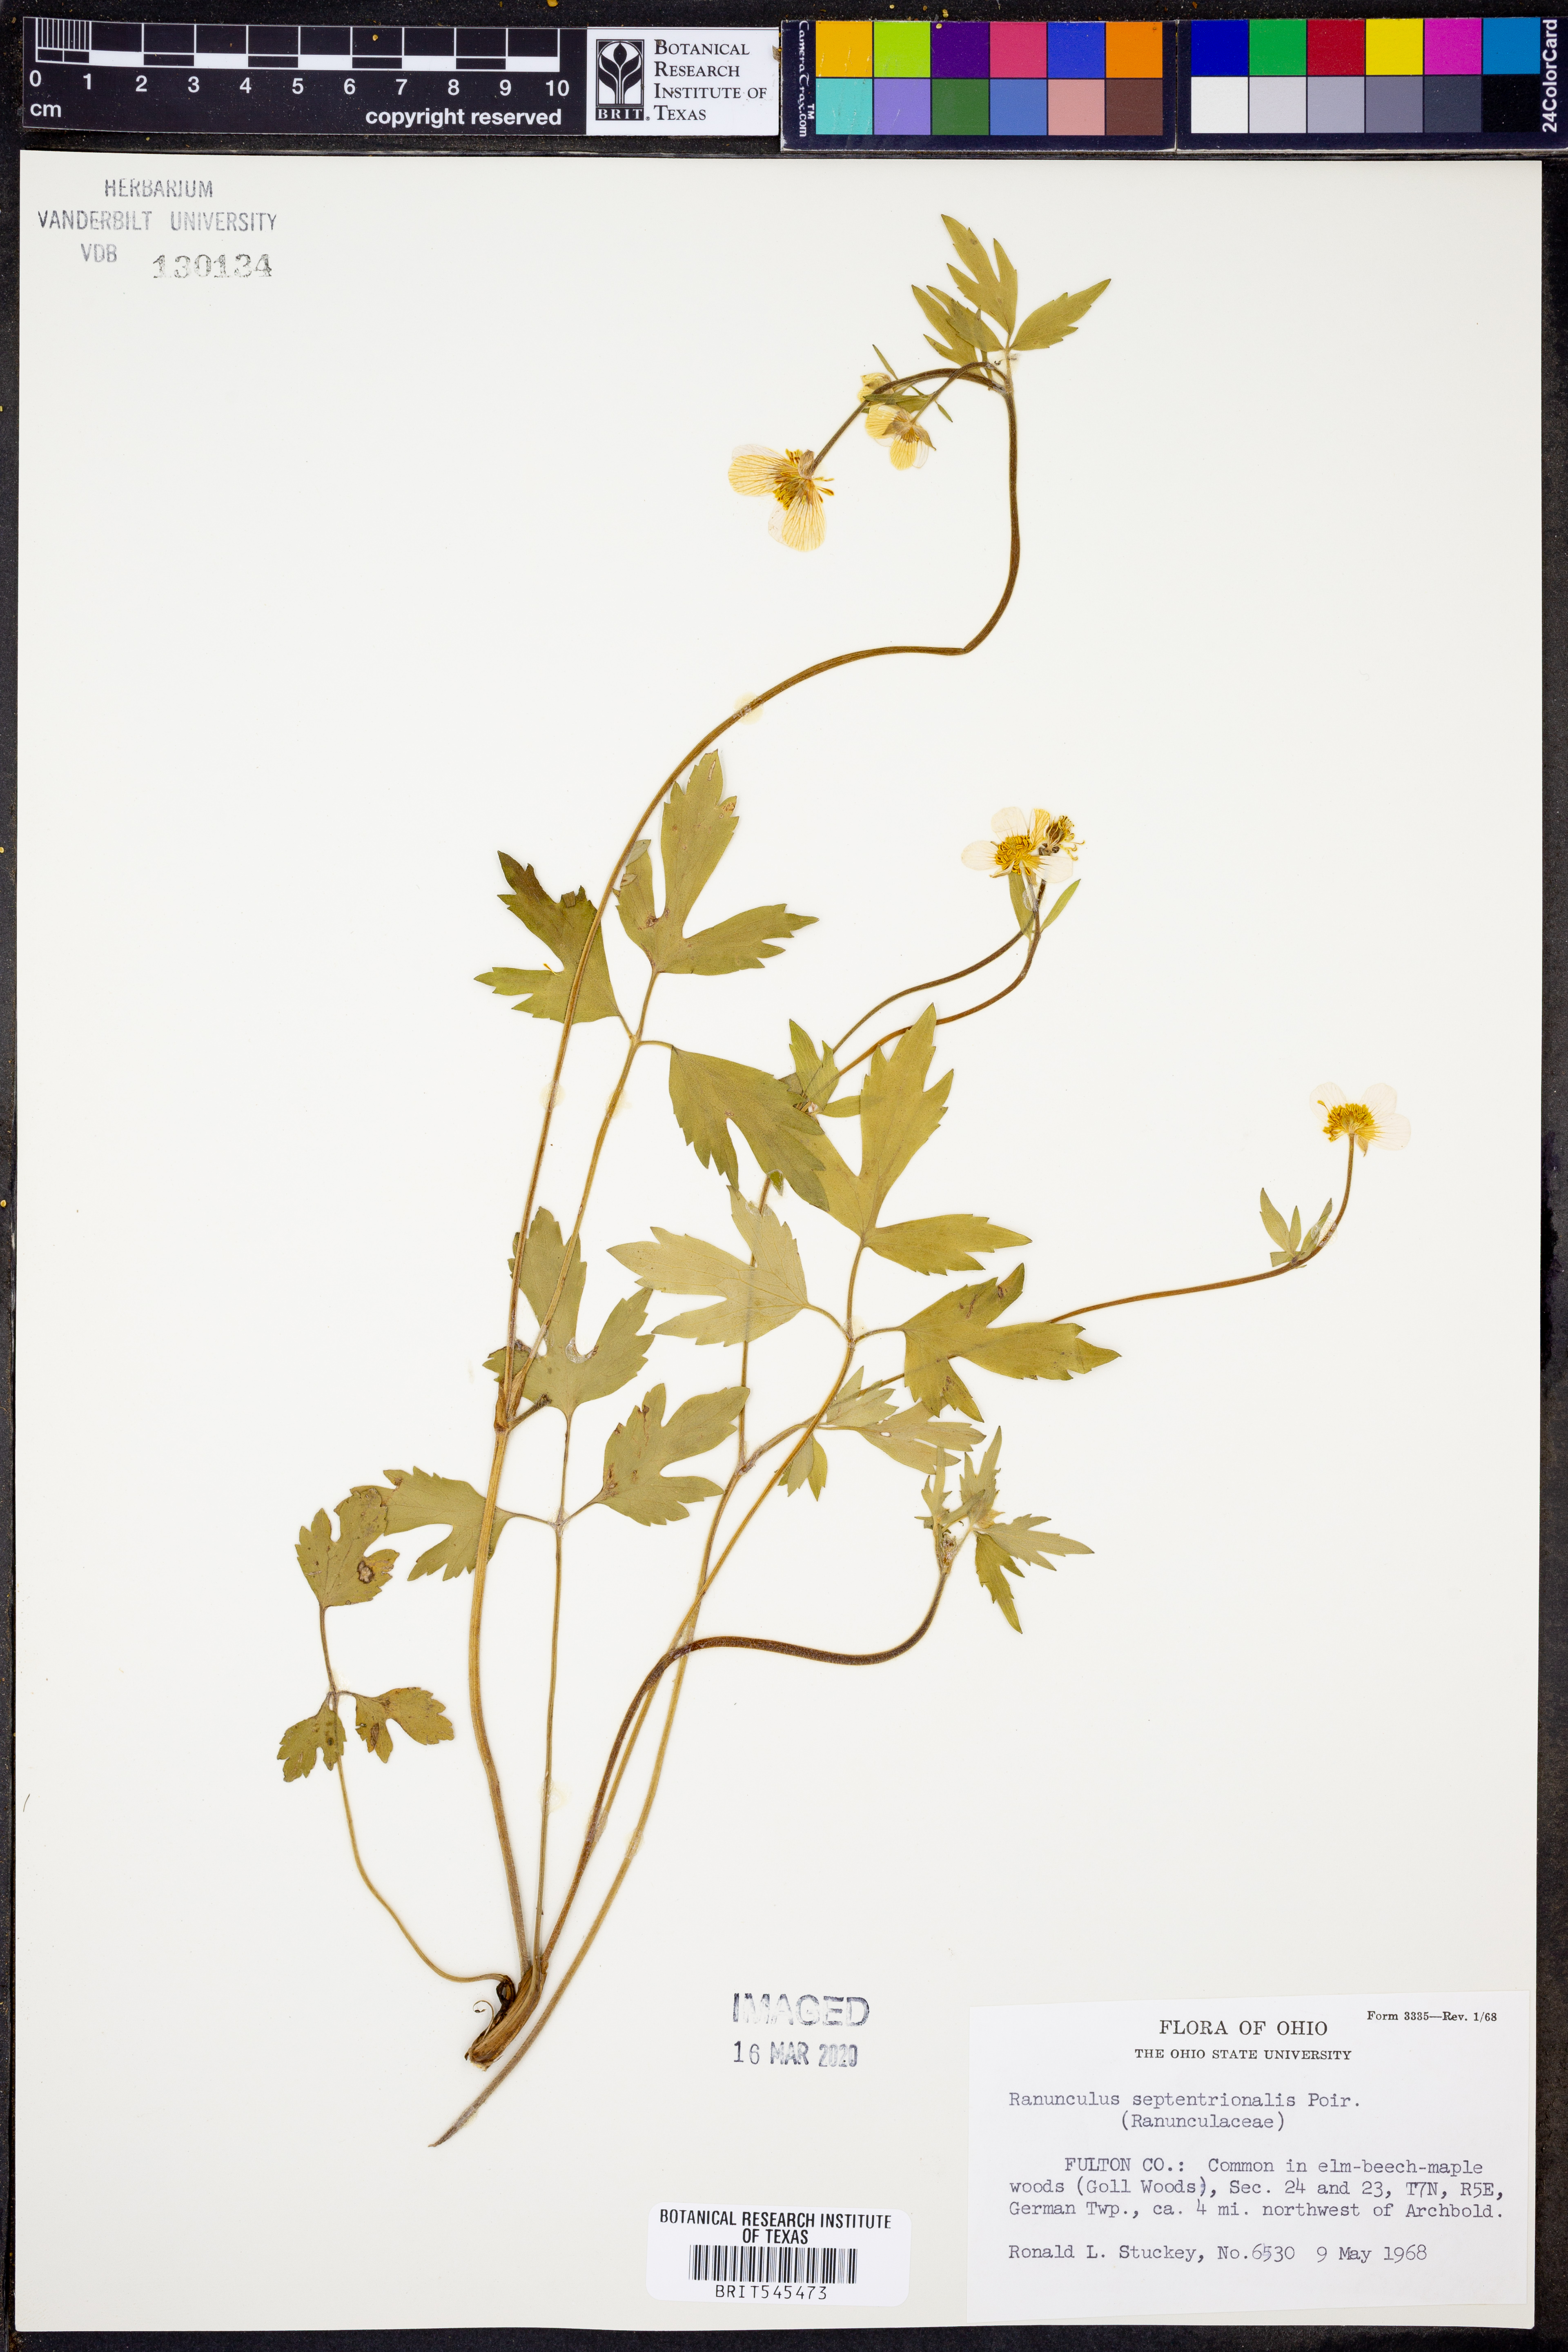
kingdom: Plantae
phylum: Tracheophyta
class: Magnoliopsida
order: Ranunculales
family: Ranunculaceae
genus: Ranunculus
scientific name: Ranunculus hispidus
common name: Bristly buttercup
